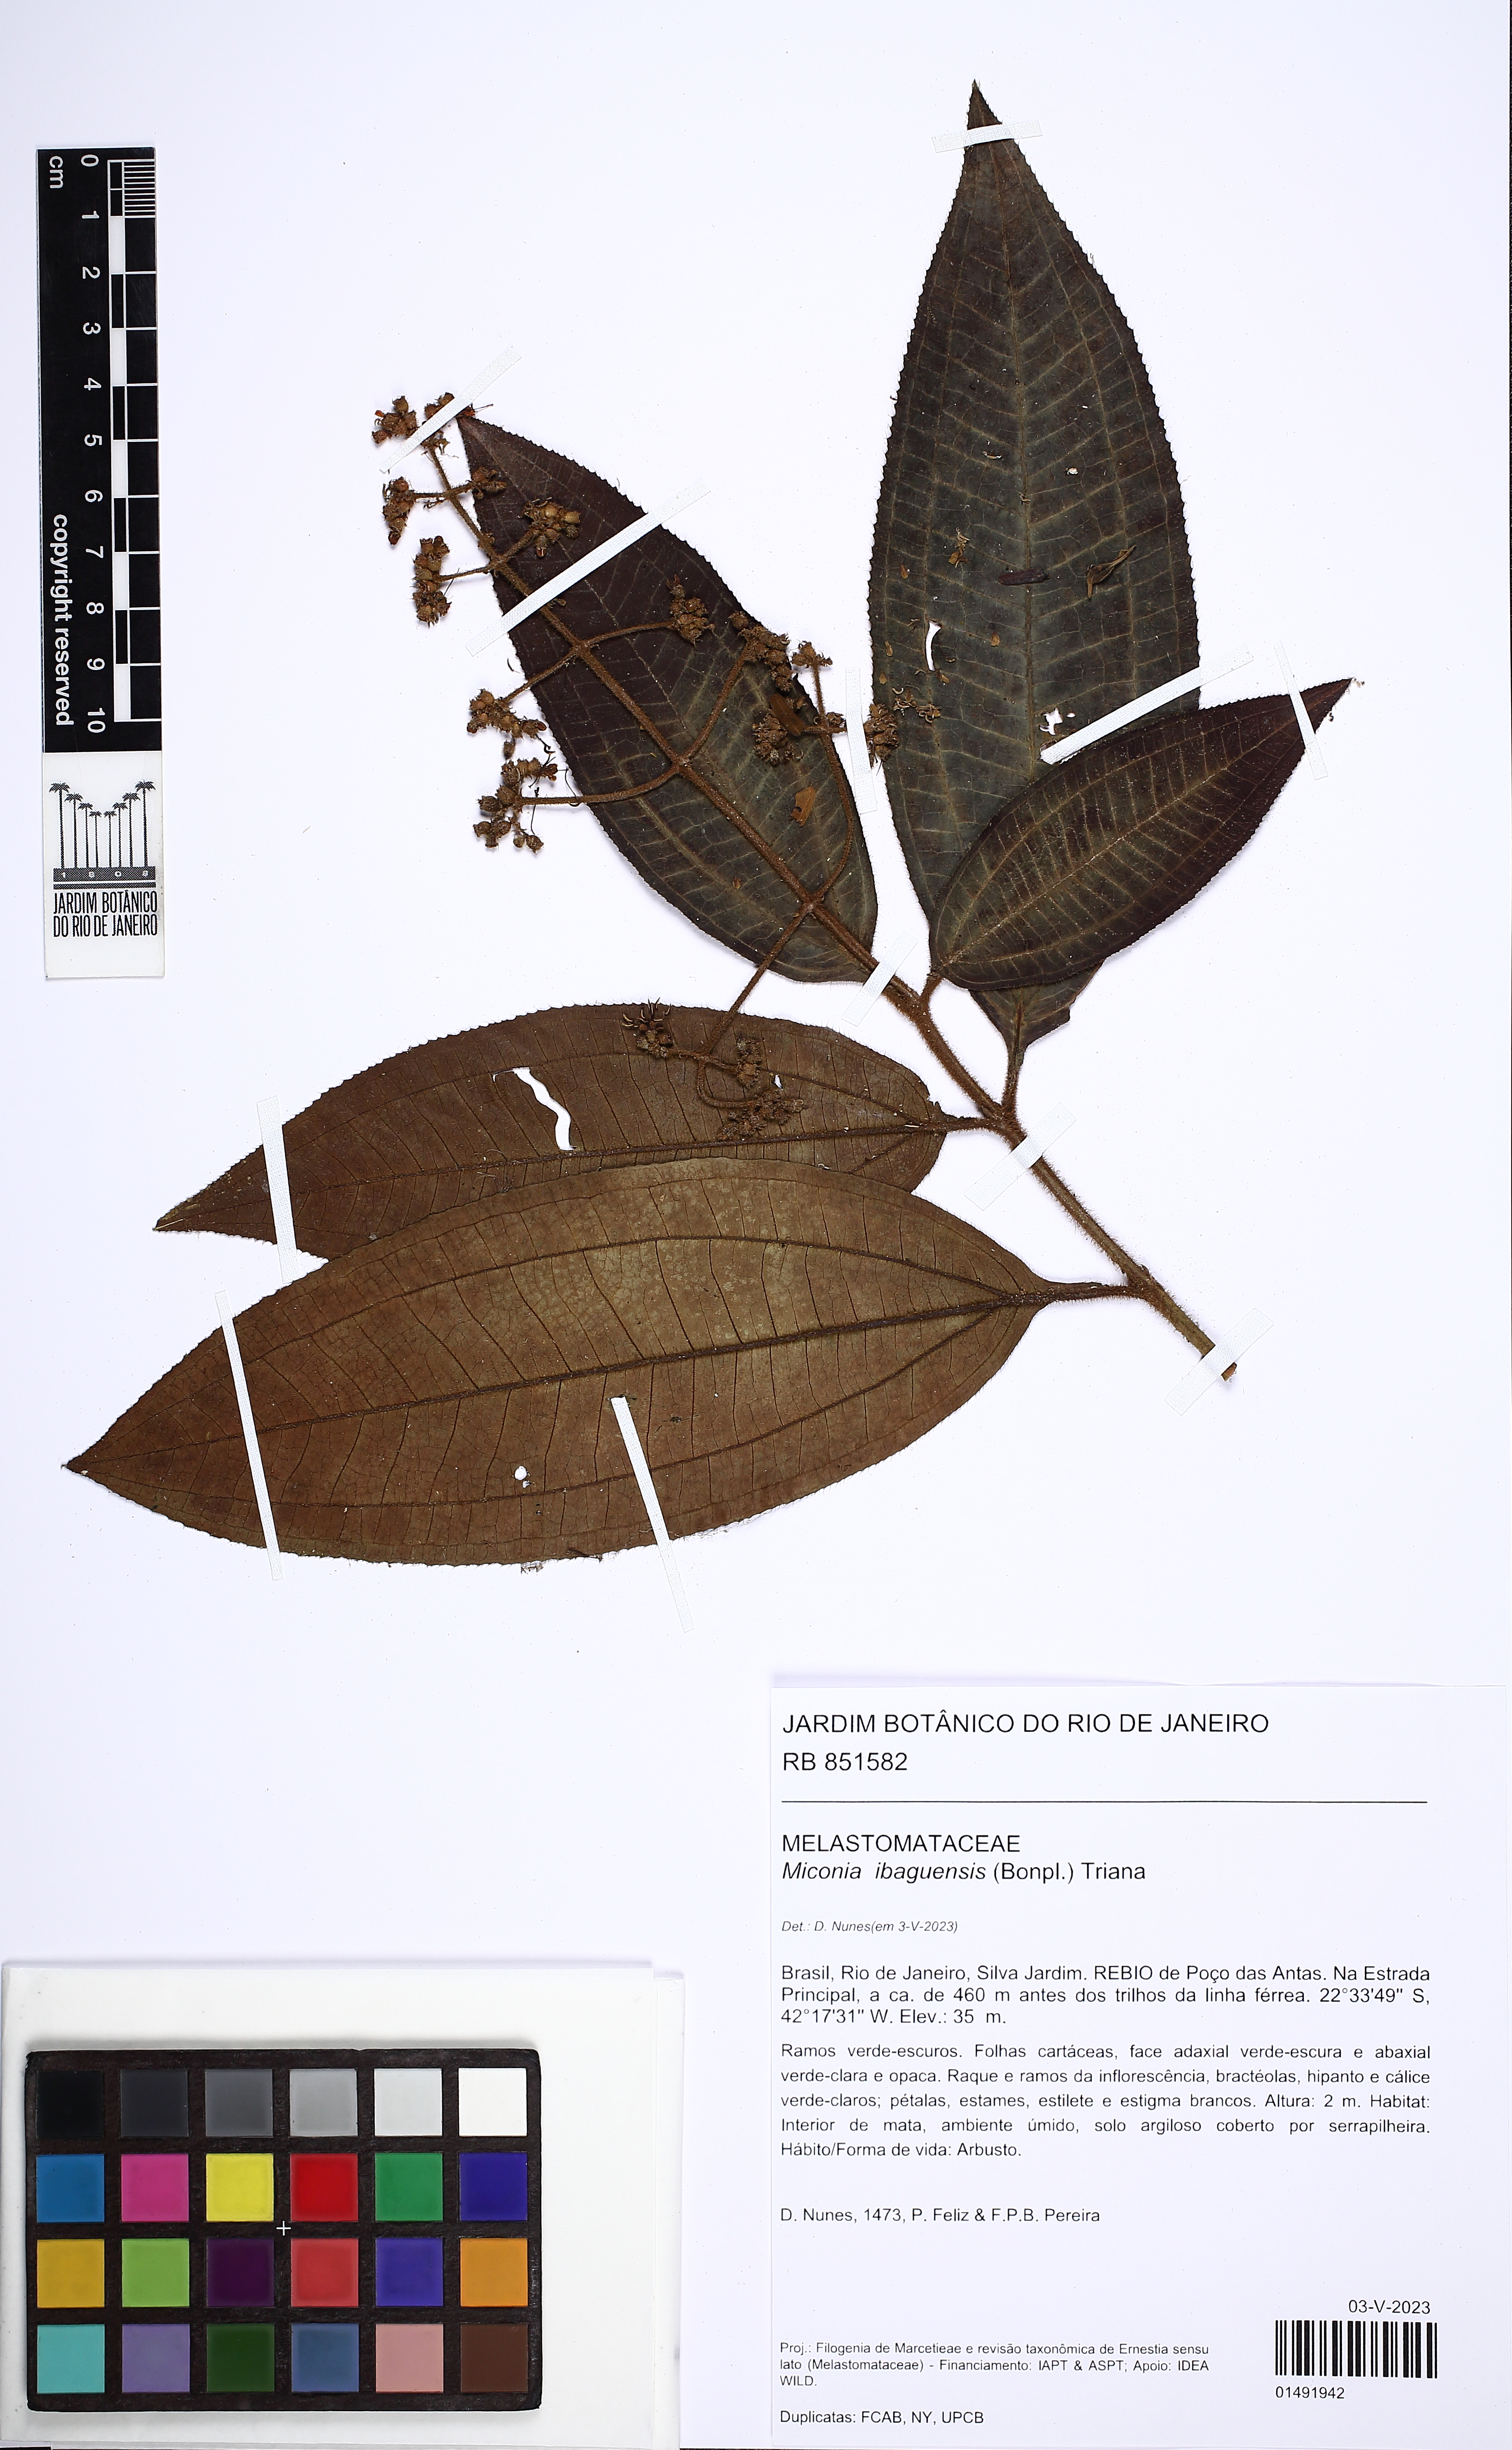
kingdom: Plantae
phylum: Tracheophyta
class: Magnoliopsida
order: Myrtales
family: Melastomataceae
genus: Miconia
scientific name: Miconia ibaguensis
